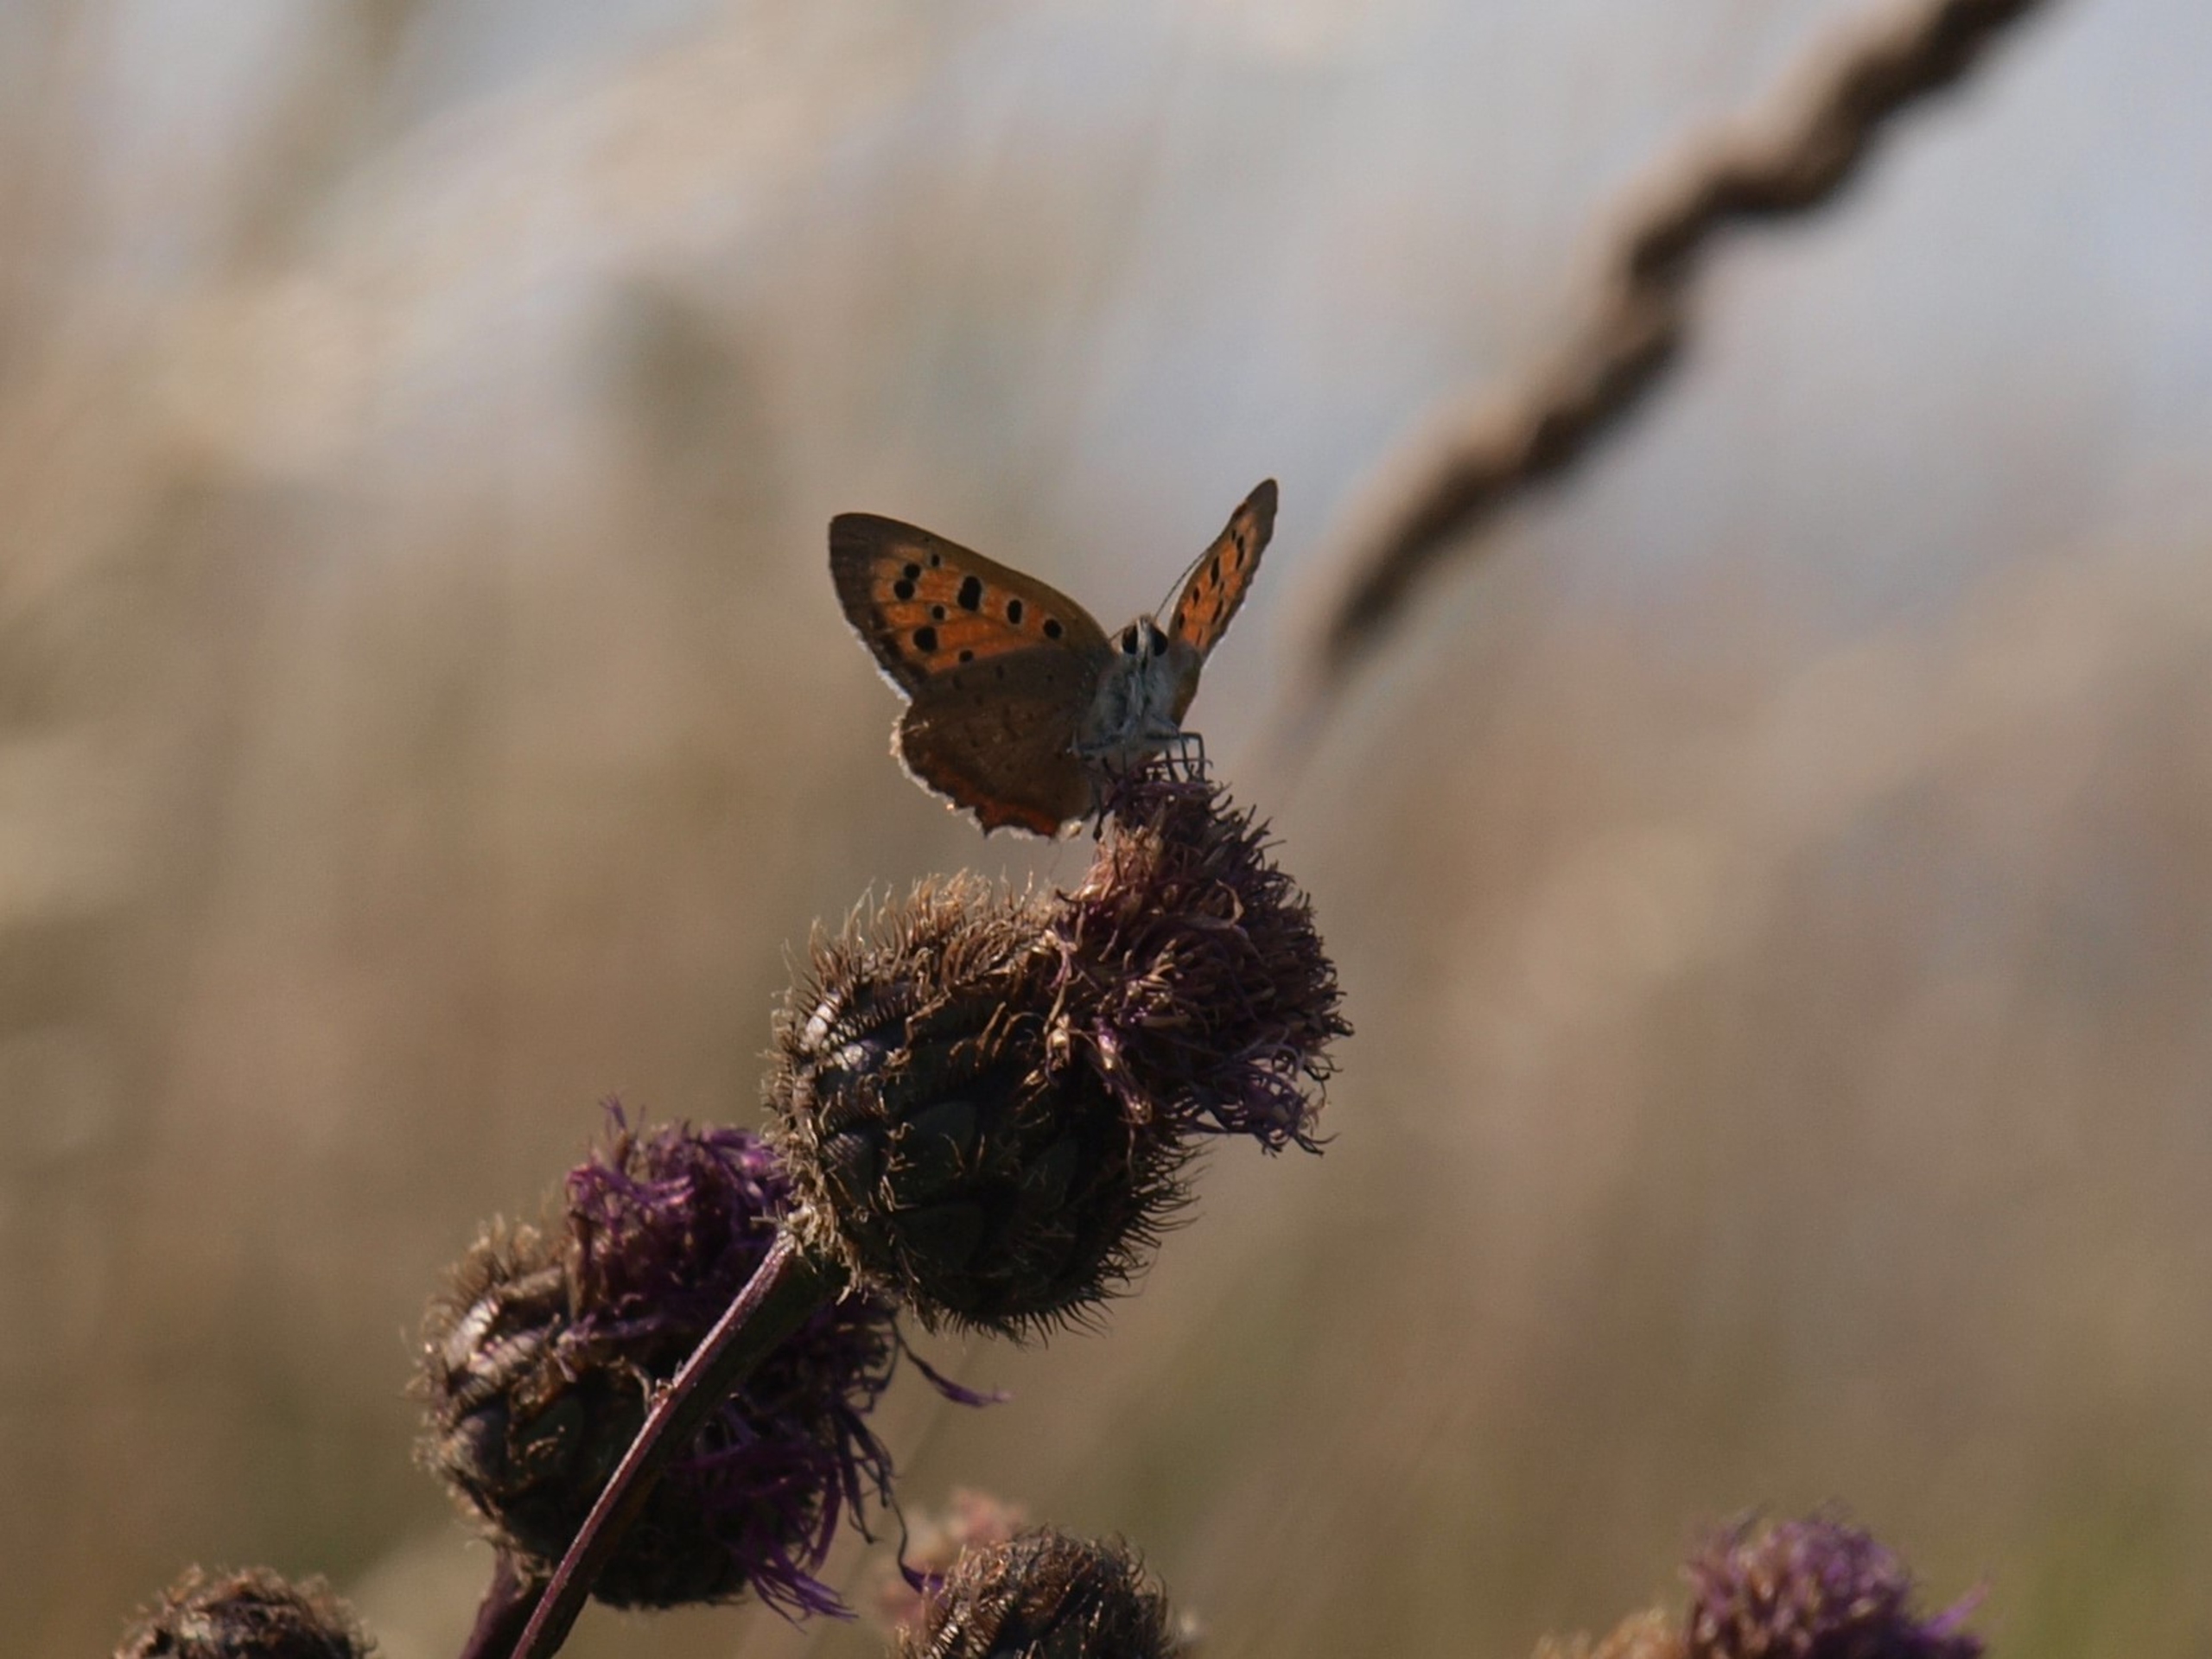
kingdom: Animalia
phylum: Arthropoda
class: Insecta
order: Lepidoptera
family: Lycaenidae
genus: Lycaena
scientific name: Lycaena phlaeas
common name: Lille ildfugl
